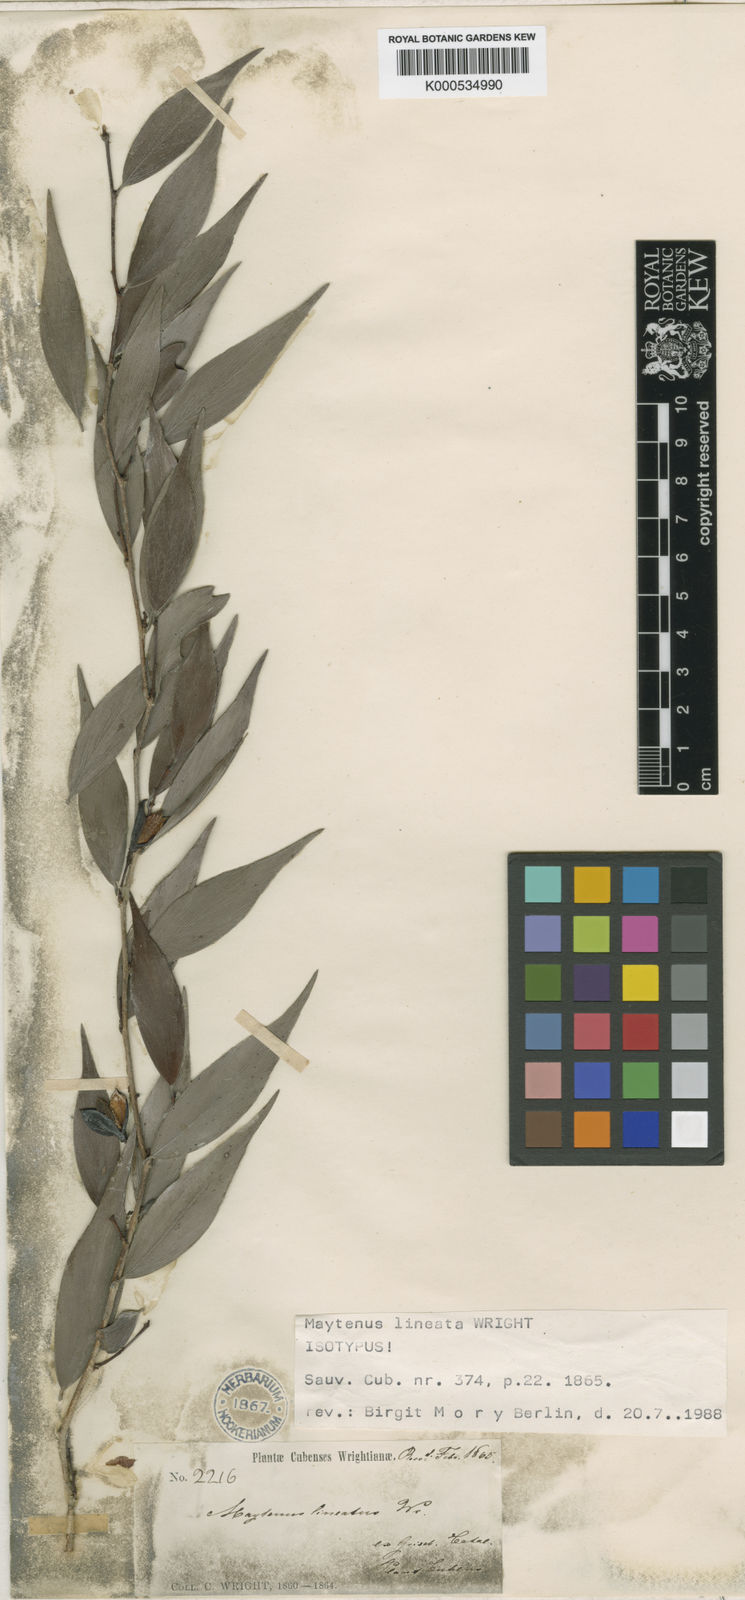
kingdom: Plantae
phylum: Tracheophyta
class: Magnoliopsida
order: Celastrales
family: Celastraceae
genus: Maytenus
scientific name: Maytenus
